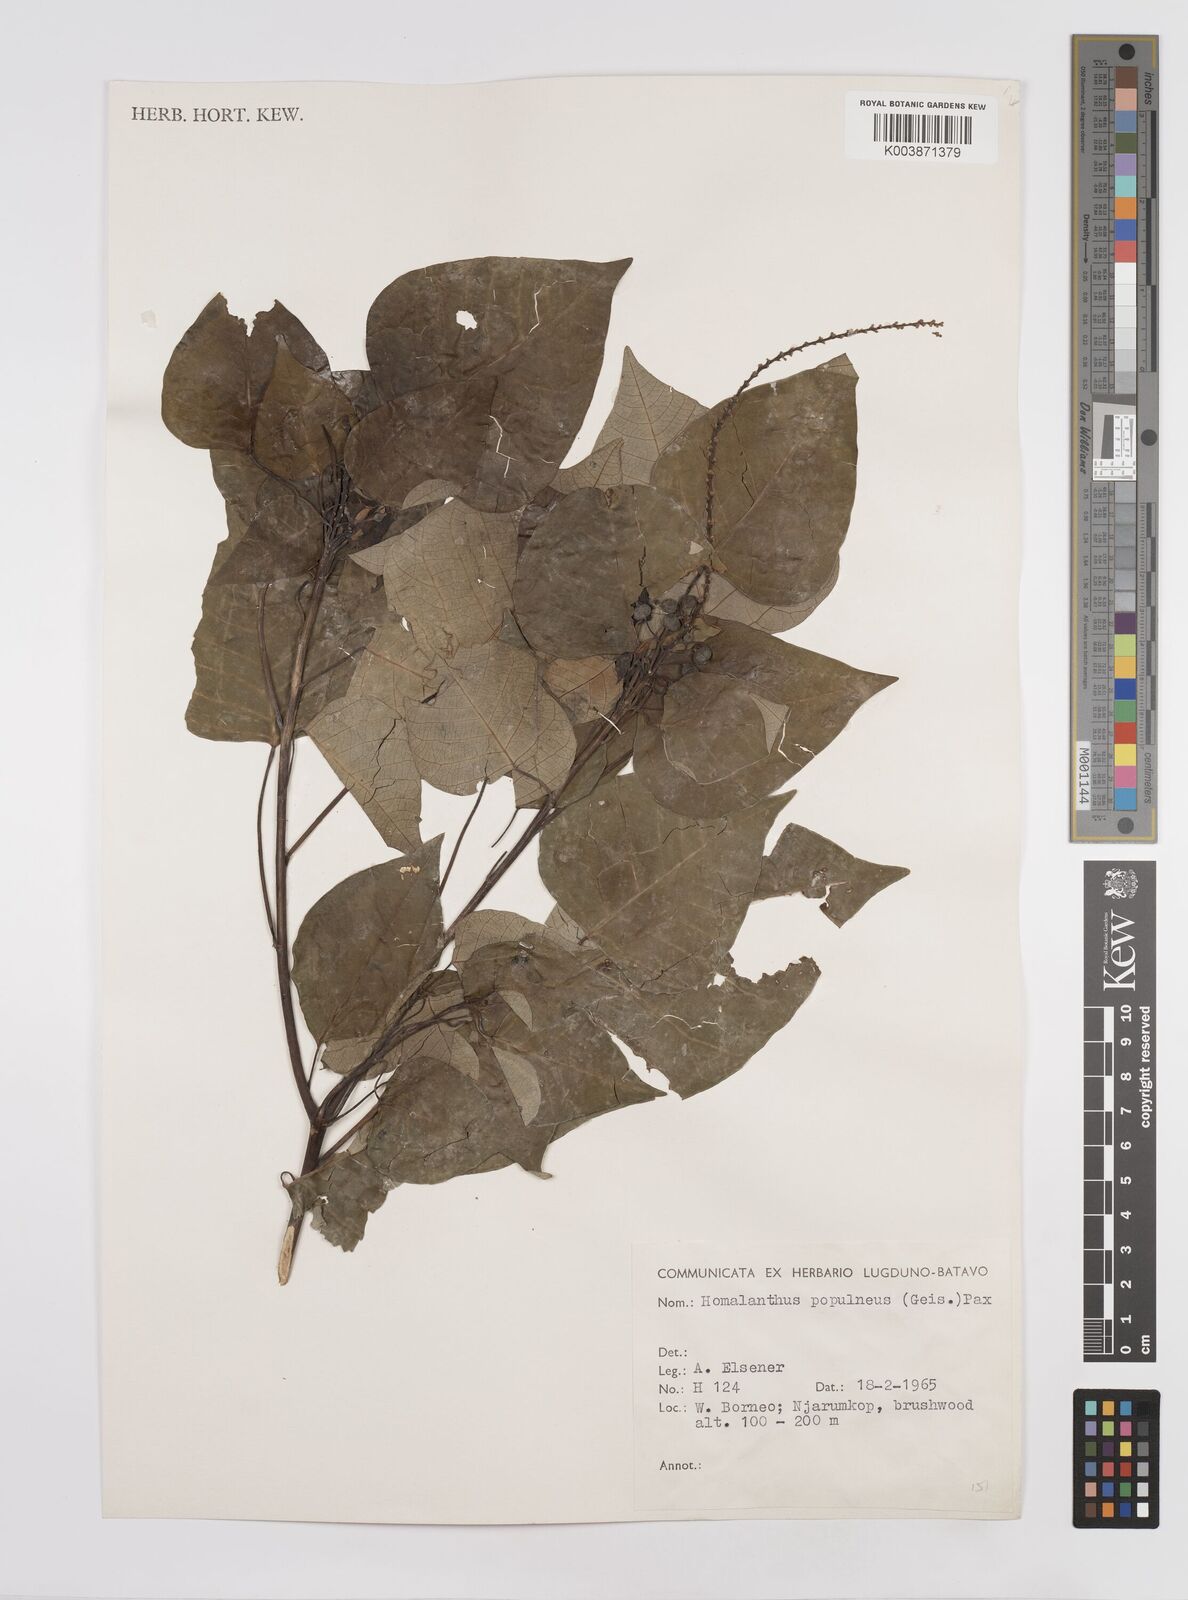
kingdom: Plantae
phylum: Tracheophyta
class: Magnoliopsida
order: Malpighiales
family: Euphorbiaceae
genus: Homalanthus
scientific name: Homalanthus populneus
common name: Spurge
